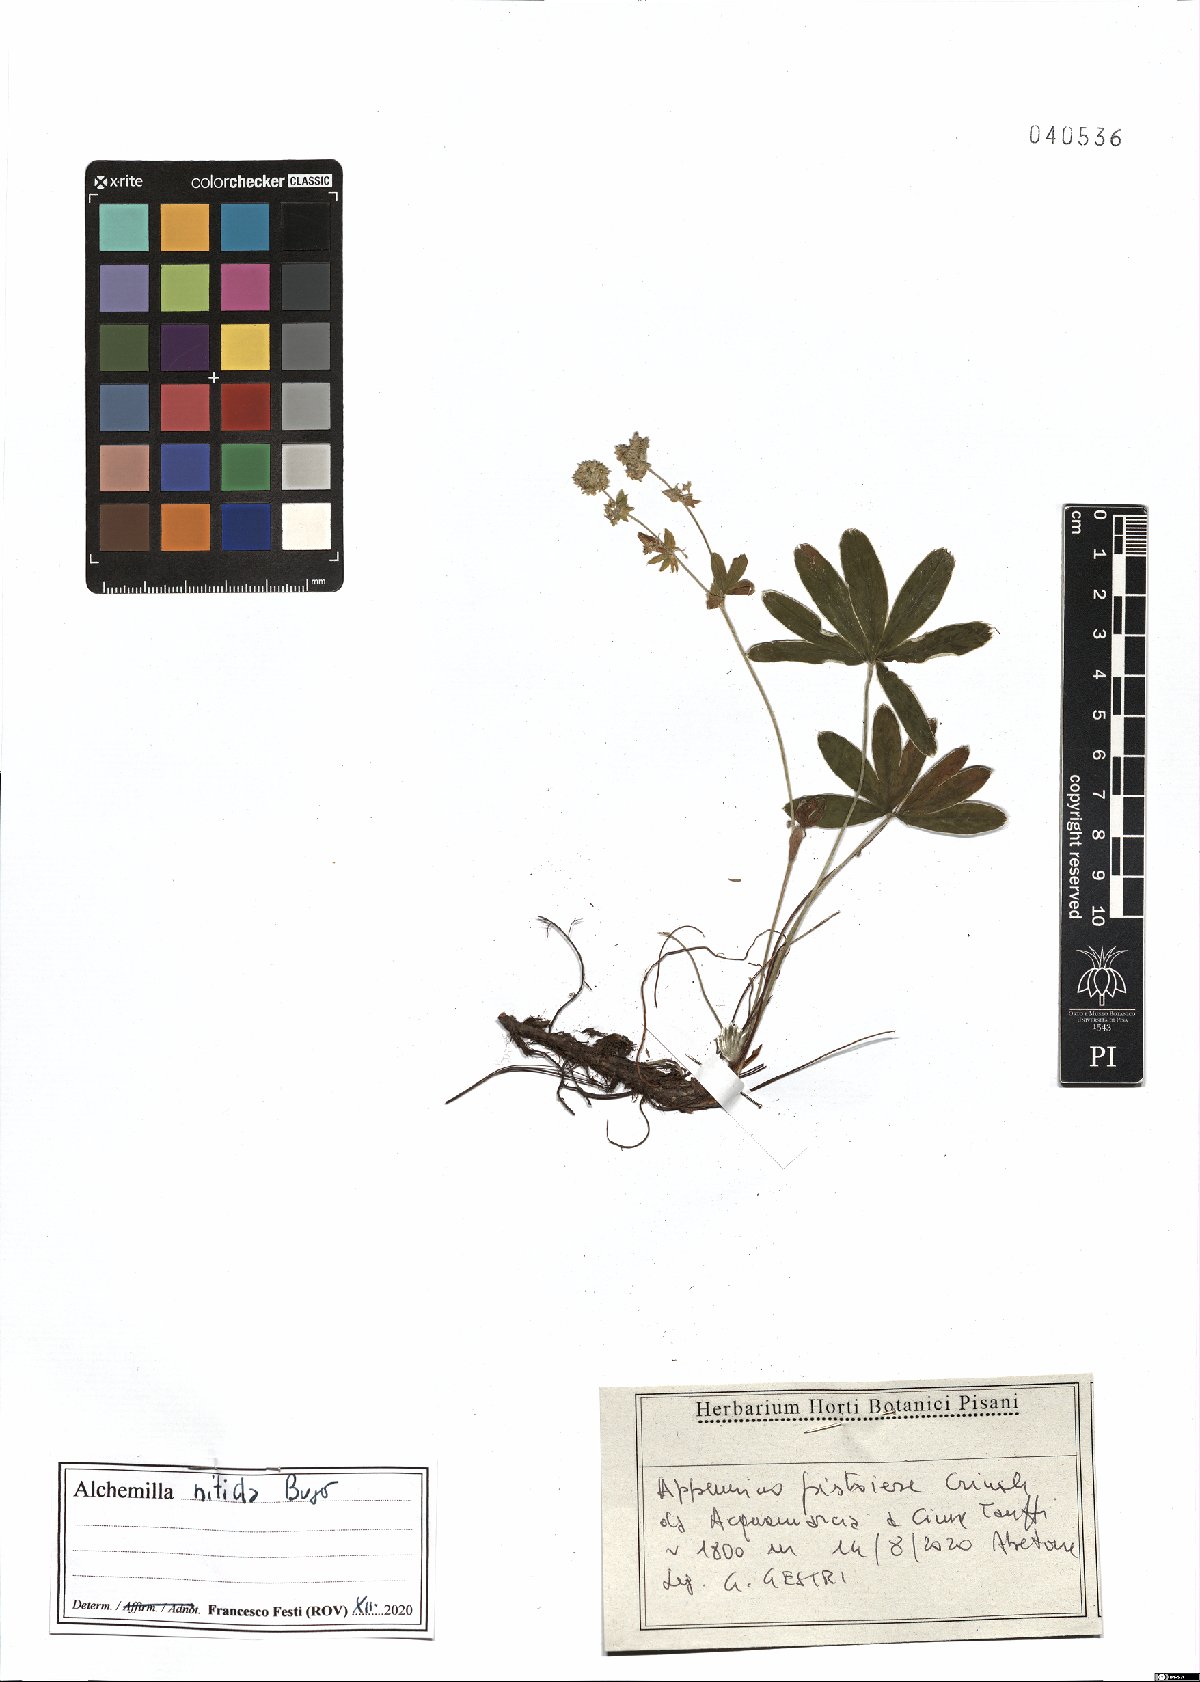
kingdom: Plantae
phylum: Tracheophyta
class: Magnoliopsida
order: Rosales
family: Rosaceae
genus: Alchemilla
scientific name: Alchemilla nitida
